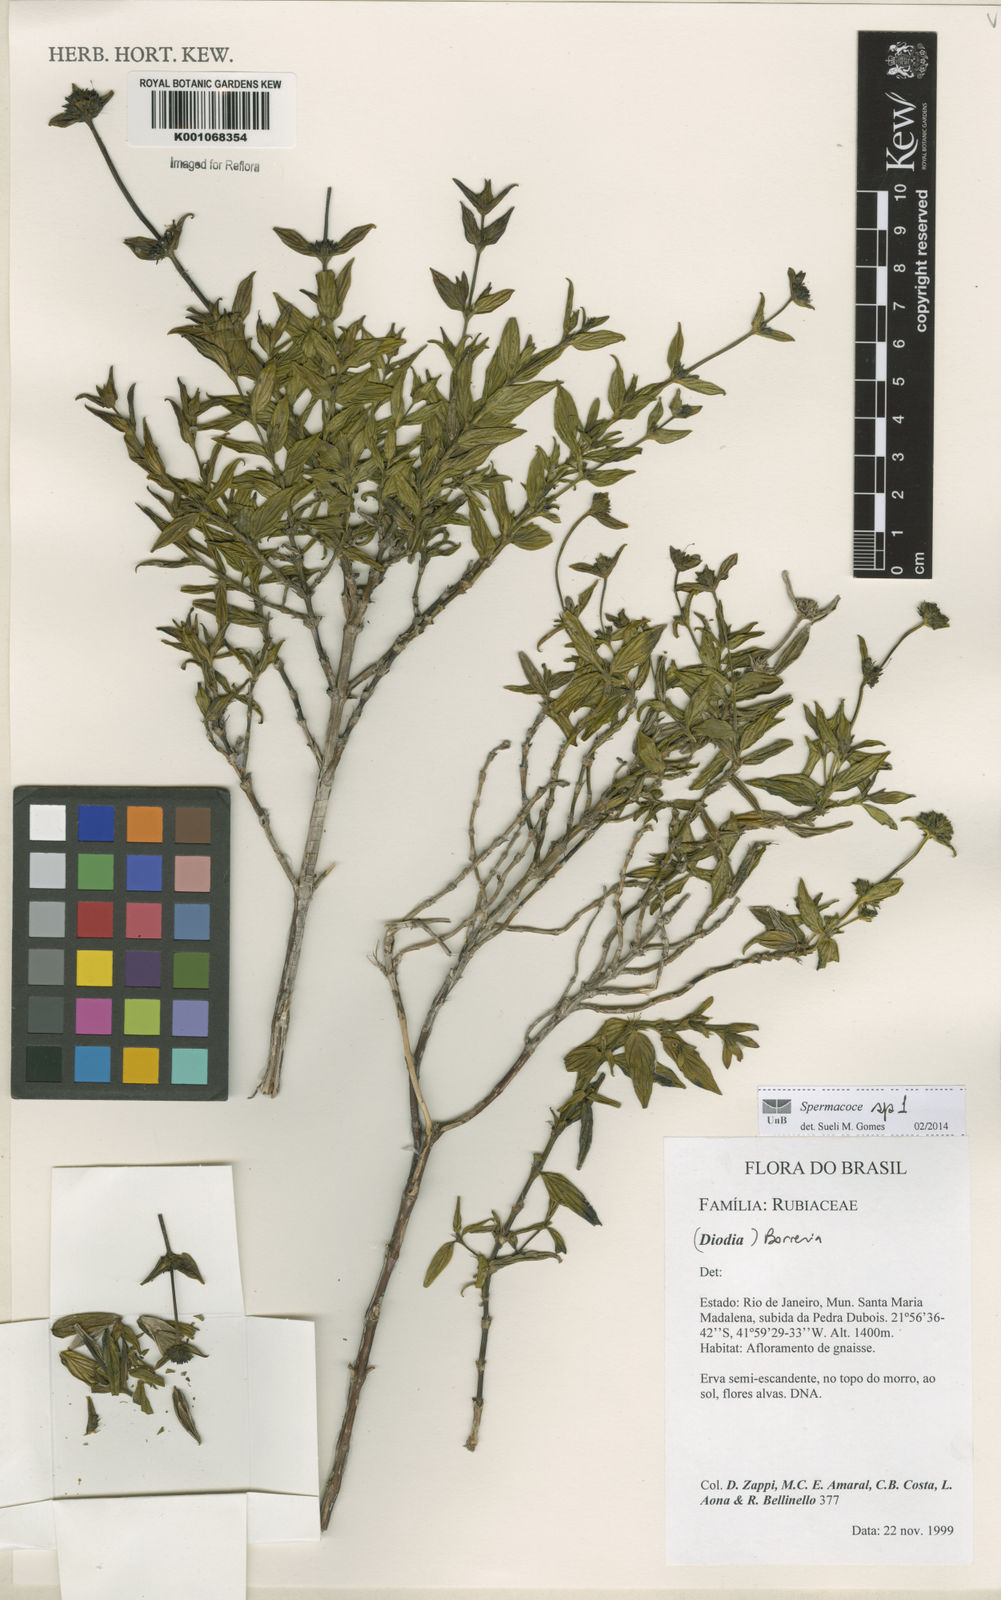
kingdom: Plantae
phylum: Tracheophyta
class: Magnoliopsida
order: Gentianales
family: Rubiaceae
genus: Spermacoce
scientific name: Spermacoce
